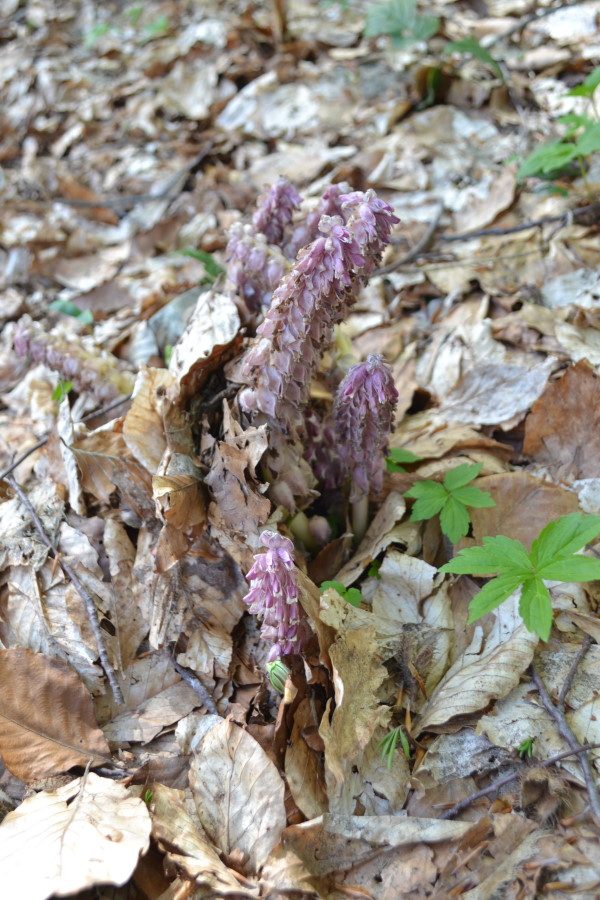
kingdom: Plantae
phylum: Tracheophyta
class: Magnoliopsida
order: Lamiales
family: Orobanchaceae
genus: Lathraea
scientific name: Lathraea
